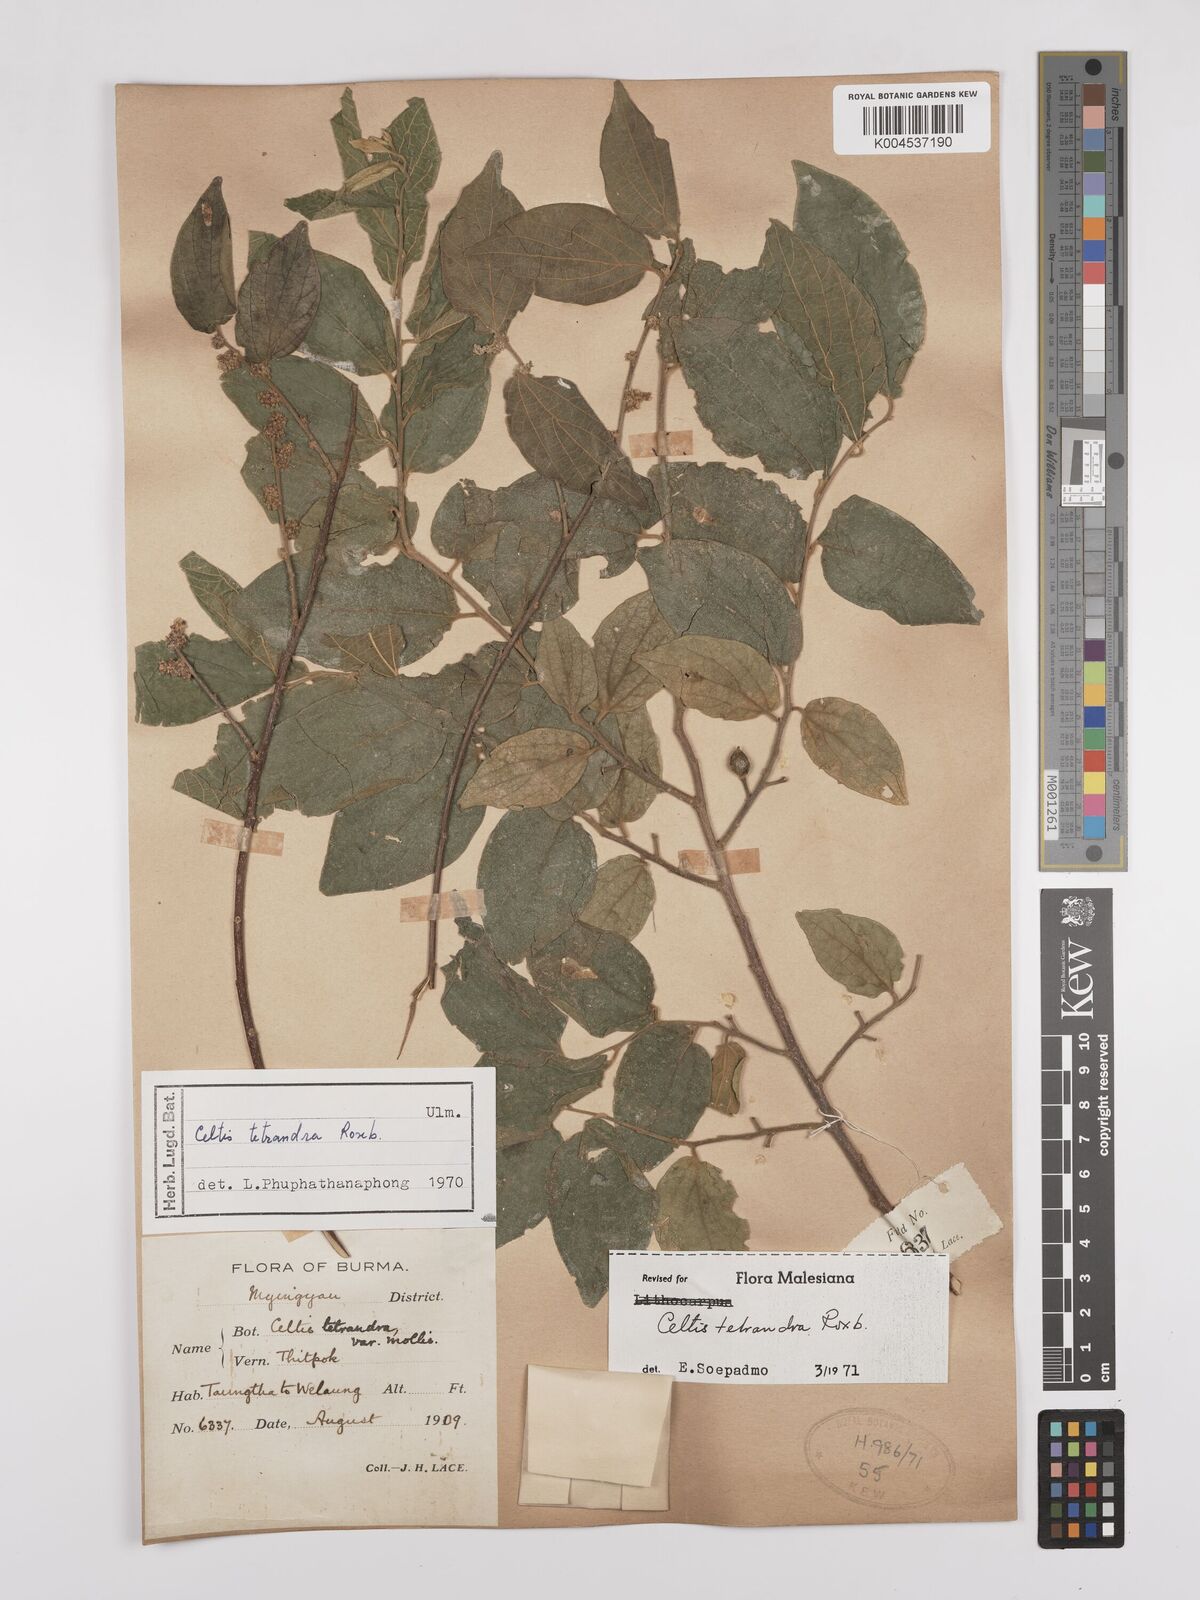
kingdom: Plantae
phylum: Tracheophyta
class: Magnoliopsida
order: Rosales
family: Cannabaceae
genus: Celtis
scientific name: Celtis tetrandra
